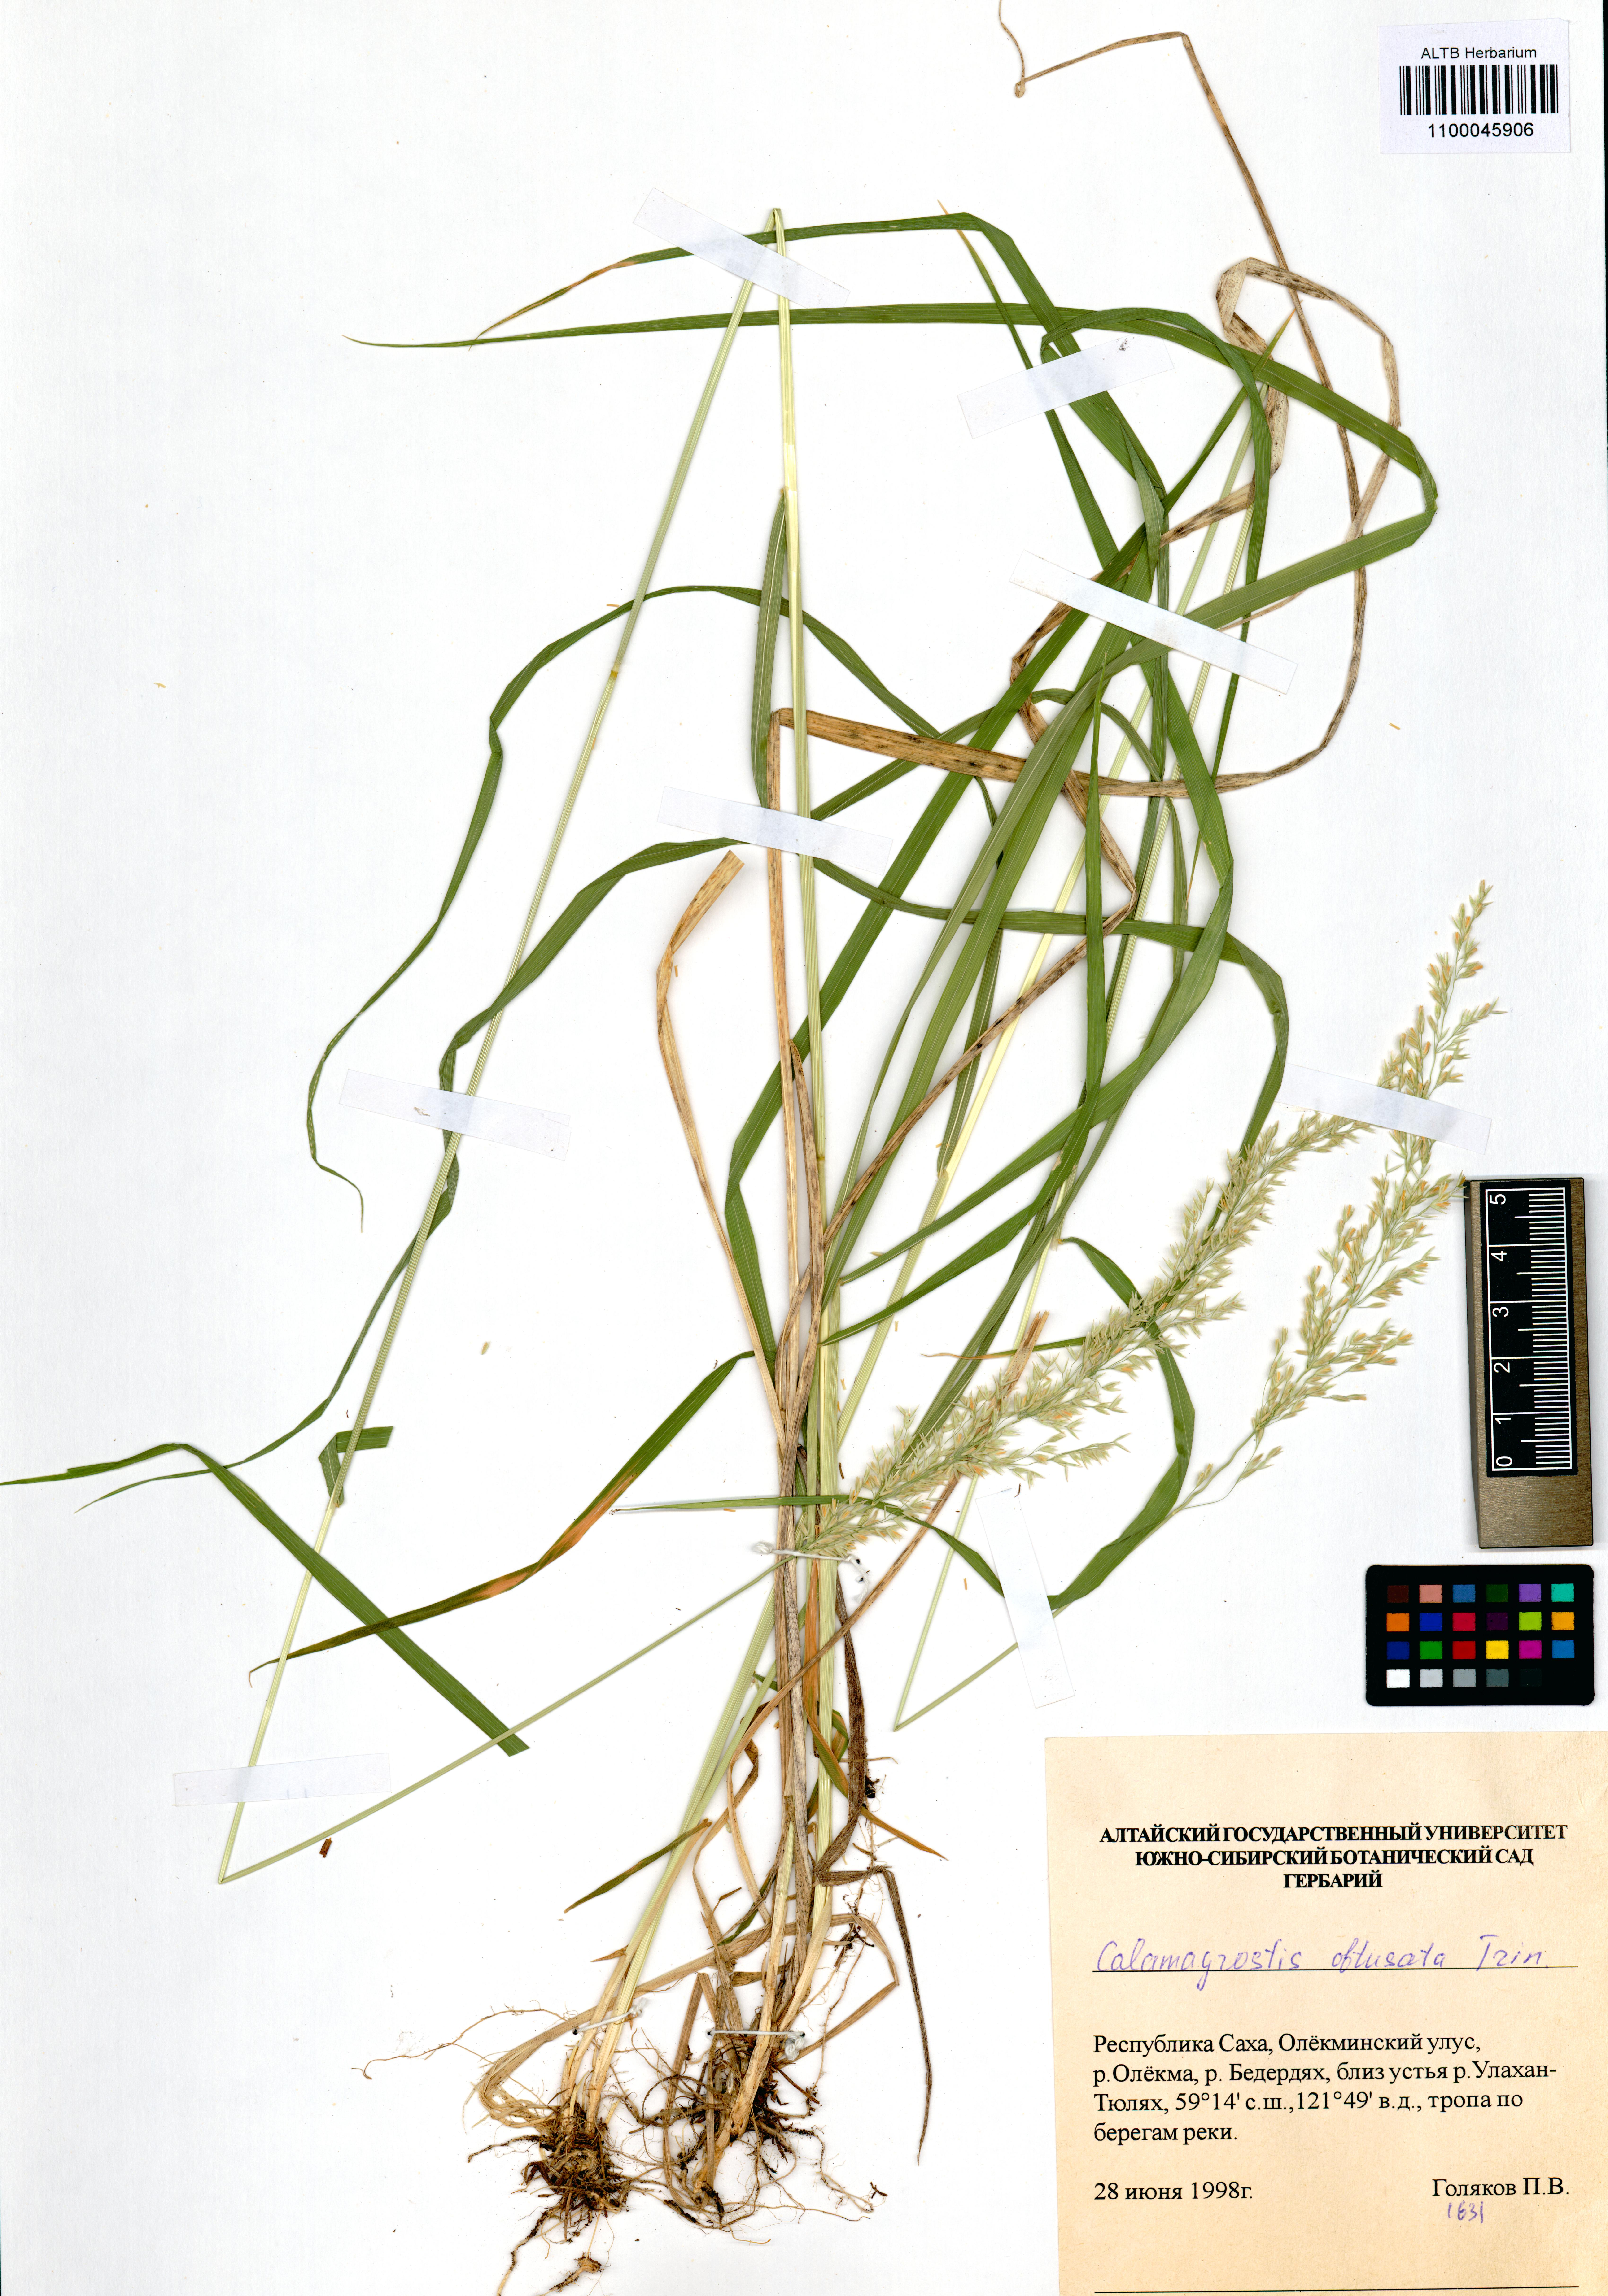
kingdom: Plantae
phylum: Tracheophyta
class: Liliopsida
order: Poales
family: Poaceae
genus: Calamagrostis
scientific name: Calamagrostis obtusata
